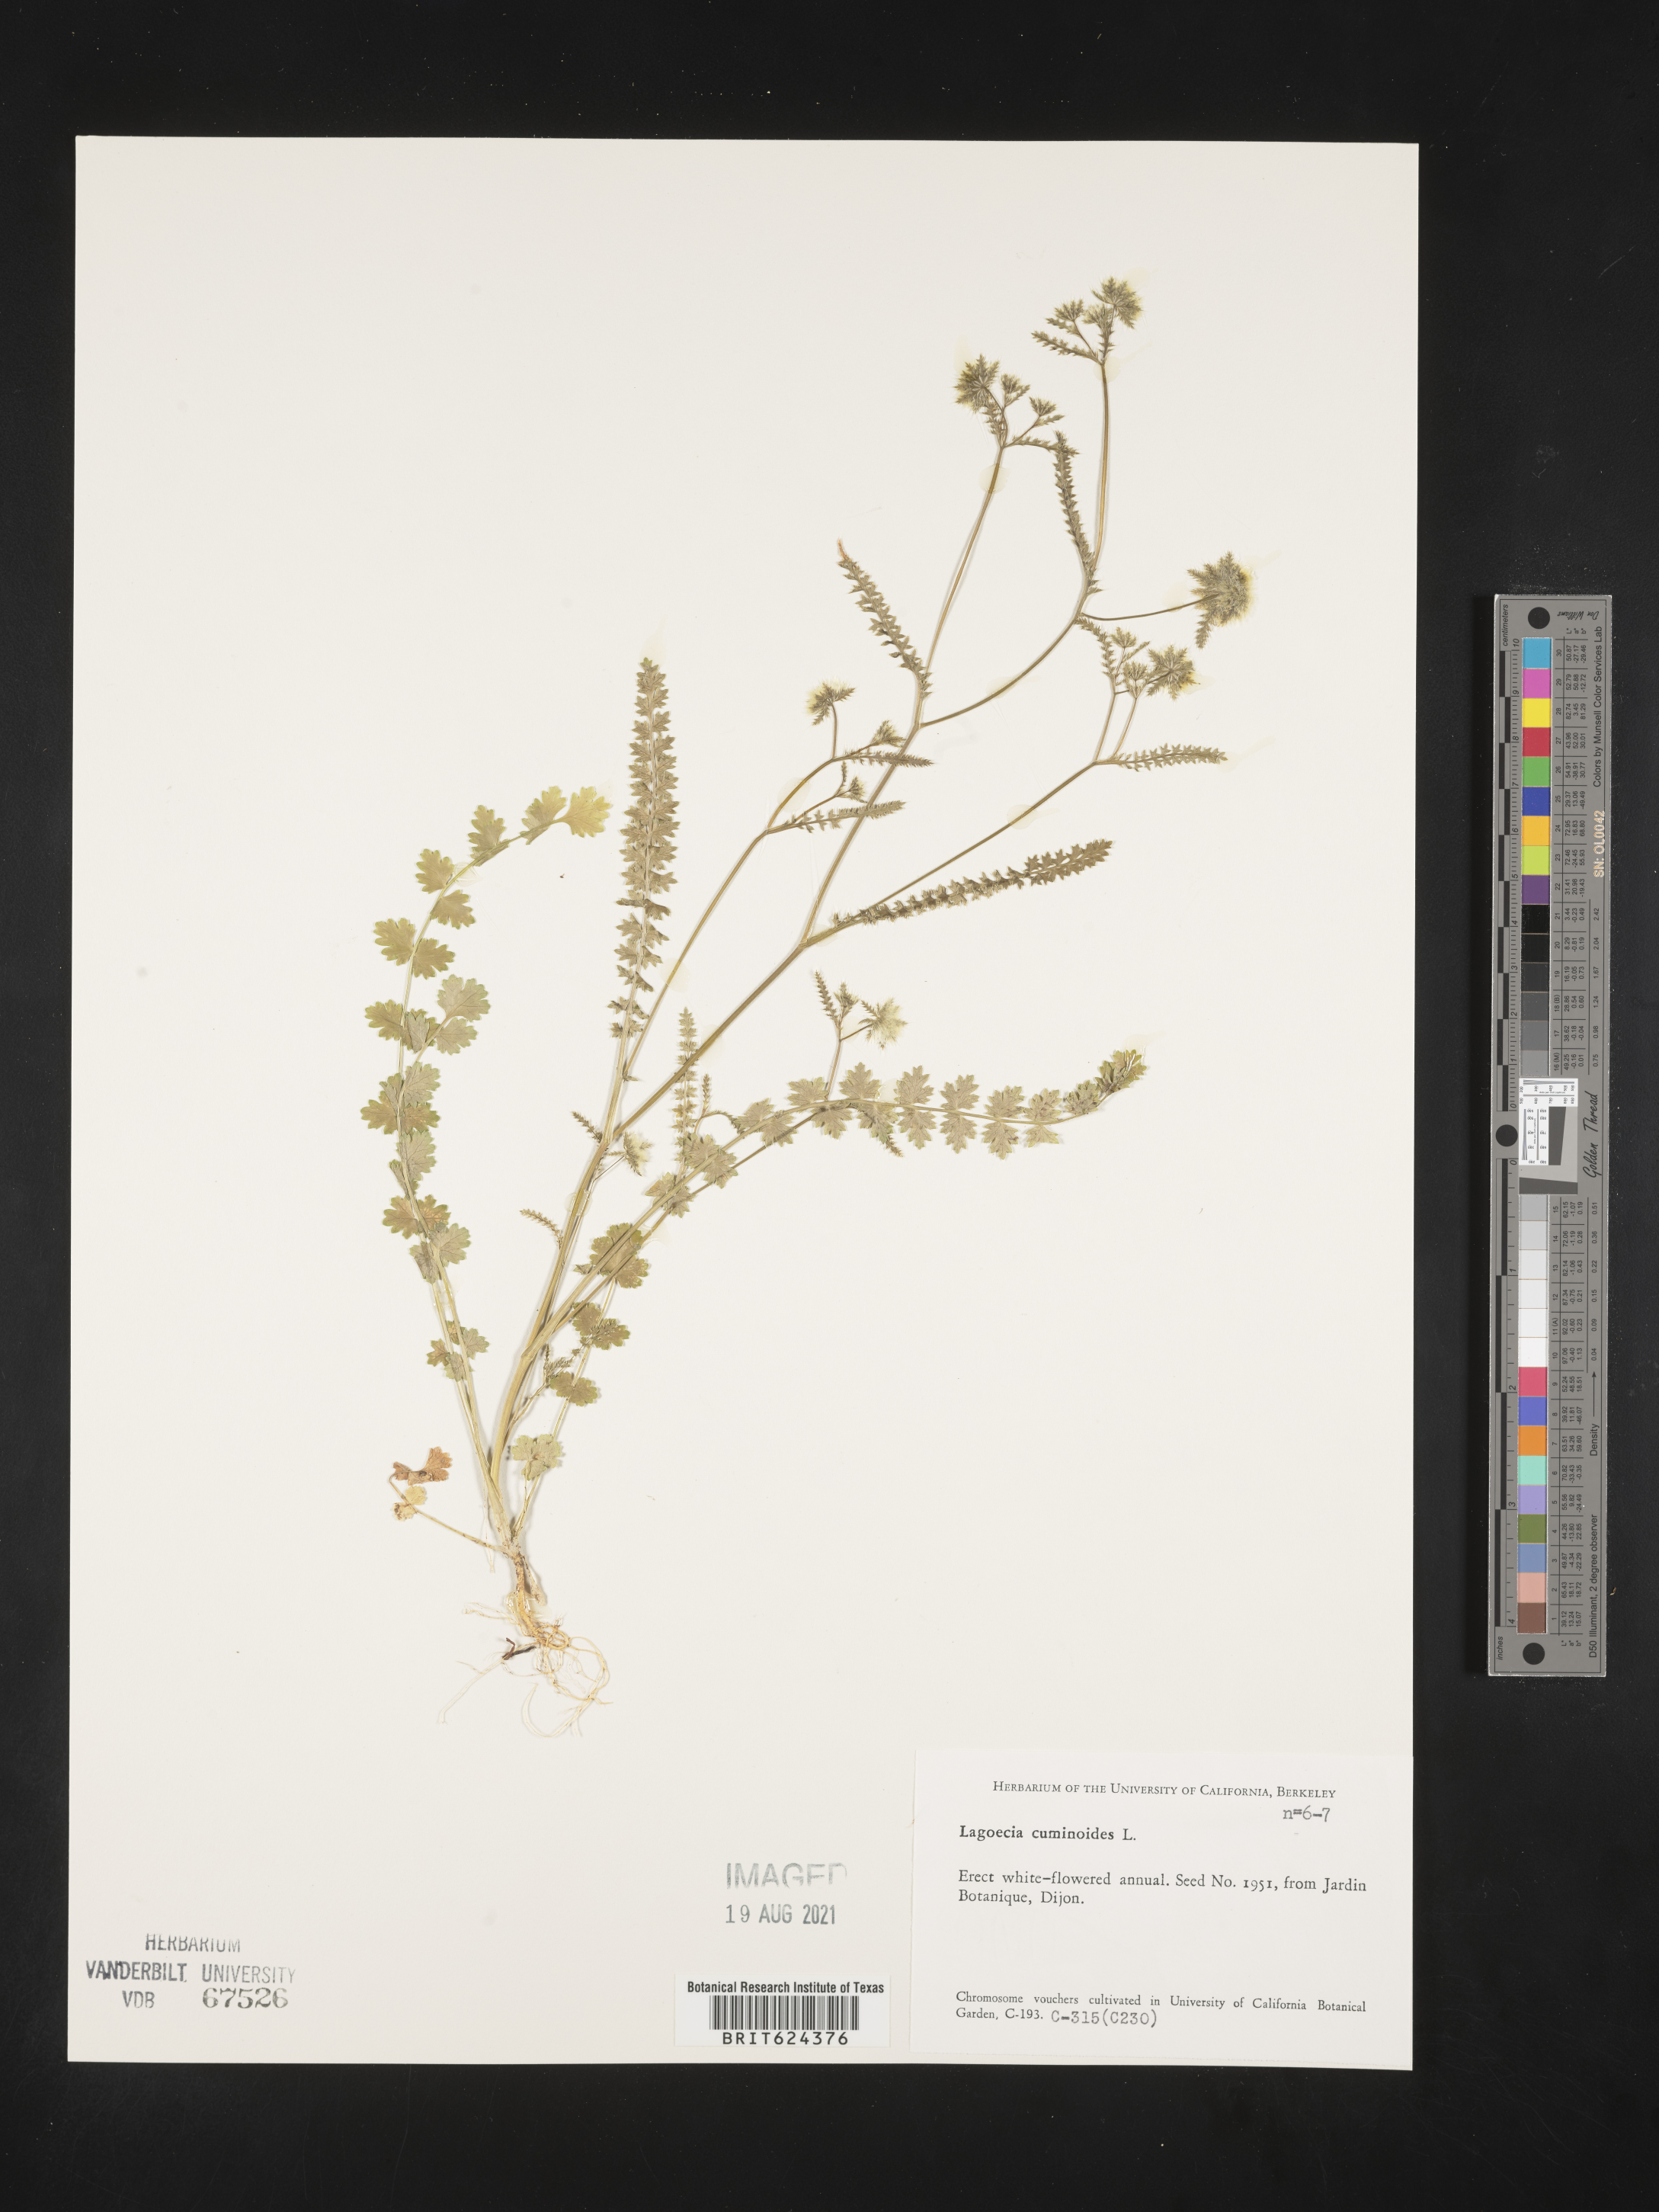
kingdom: Plantae
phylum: Tracheophyta
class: Magnoliopsida
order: Apiales
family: Apiaceae
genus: Lagoecia
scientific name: Lagoecia cuminoides
